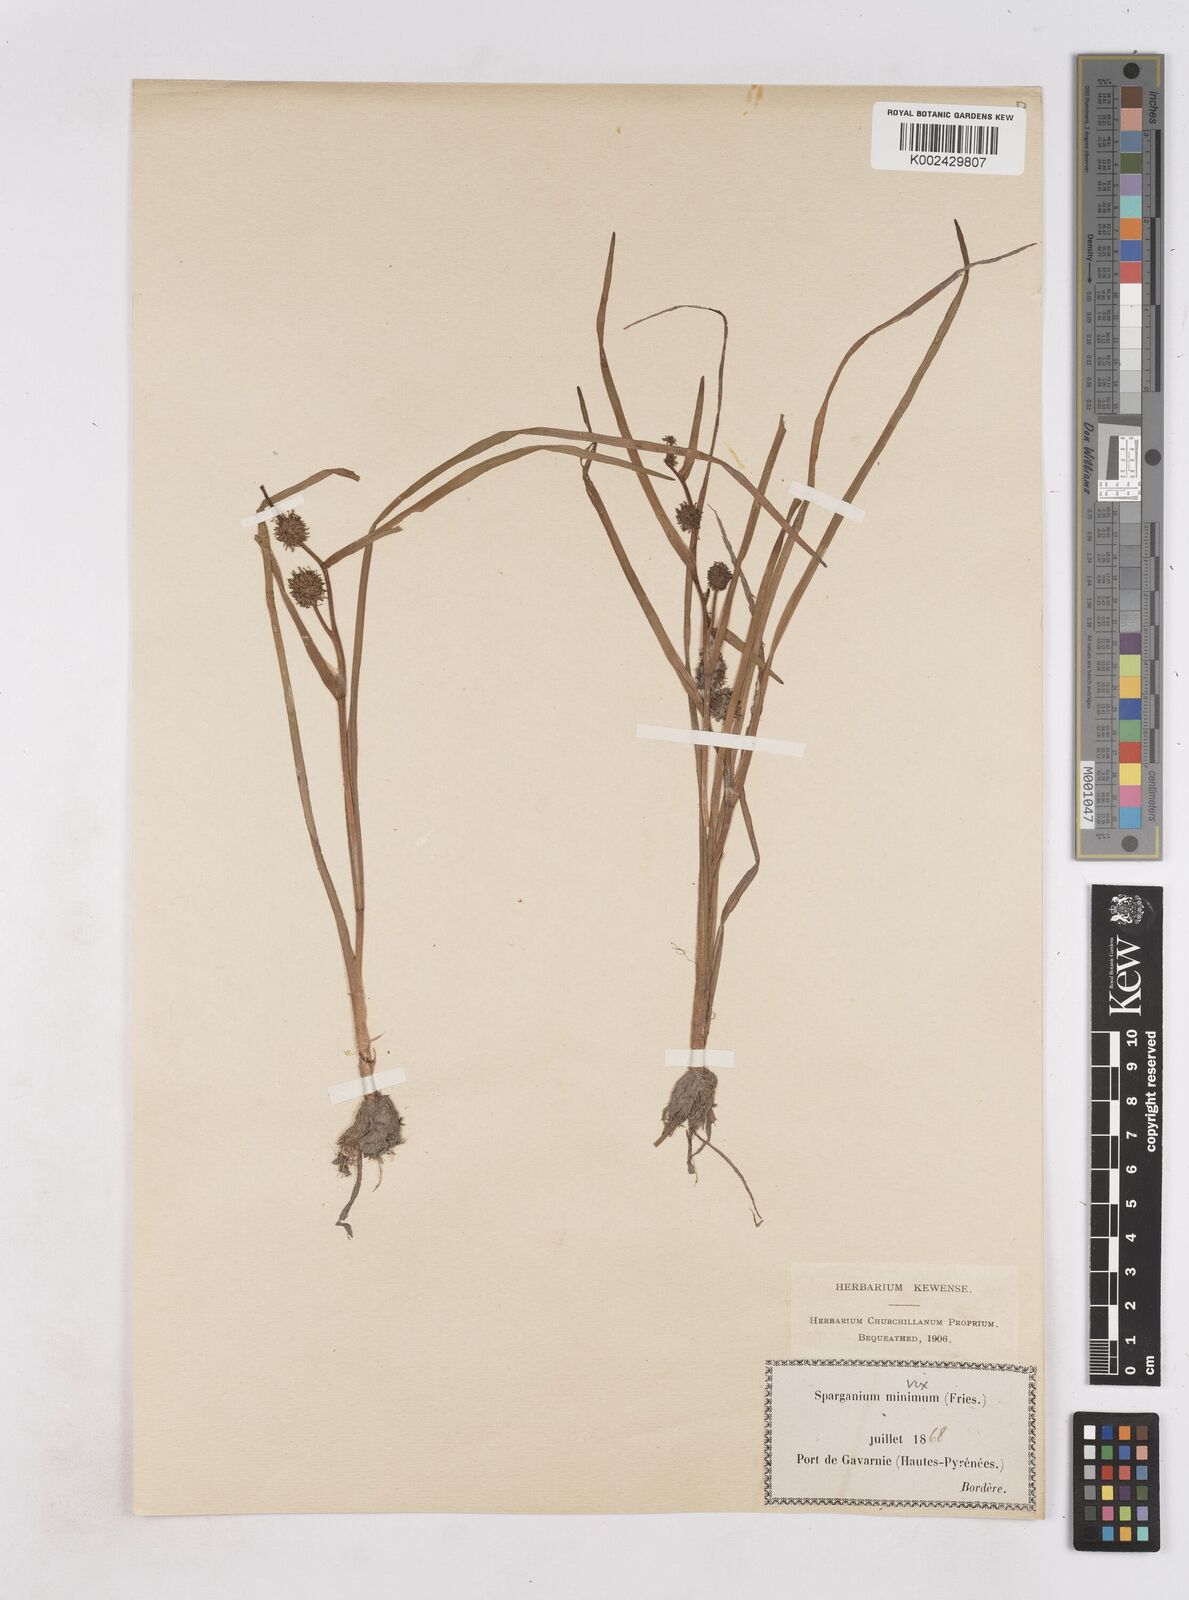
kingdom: Plantae
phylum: Tracheophyta
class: Liliopsida
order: Poales
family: Typhaceae
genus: Sparganium
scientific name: Sparganium angustifolium
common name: Floating bur-reed
